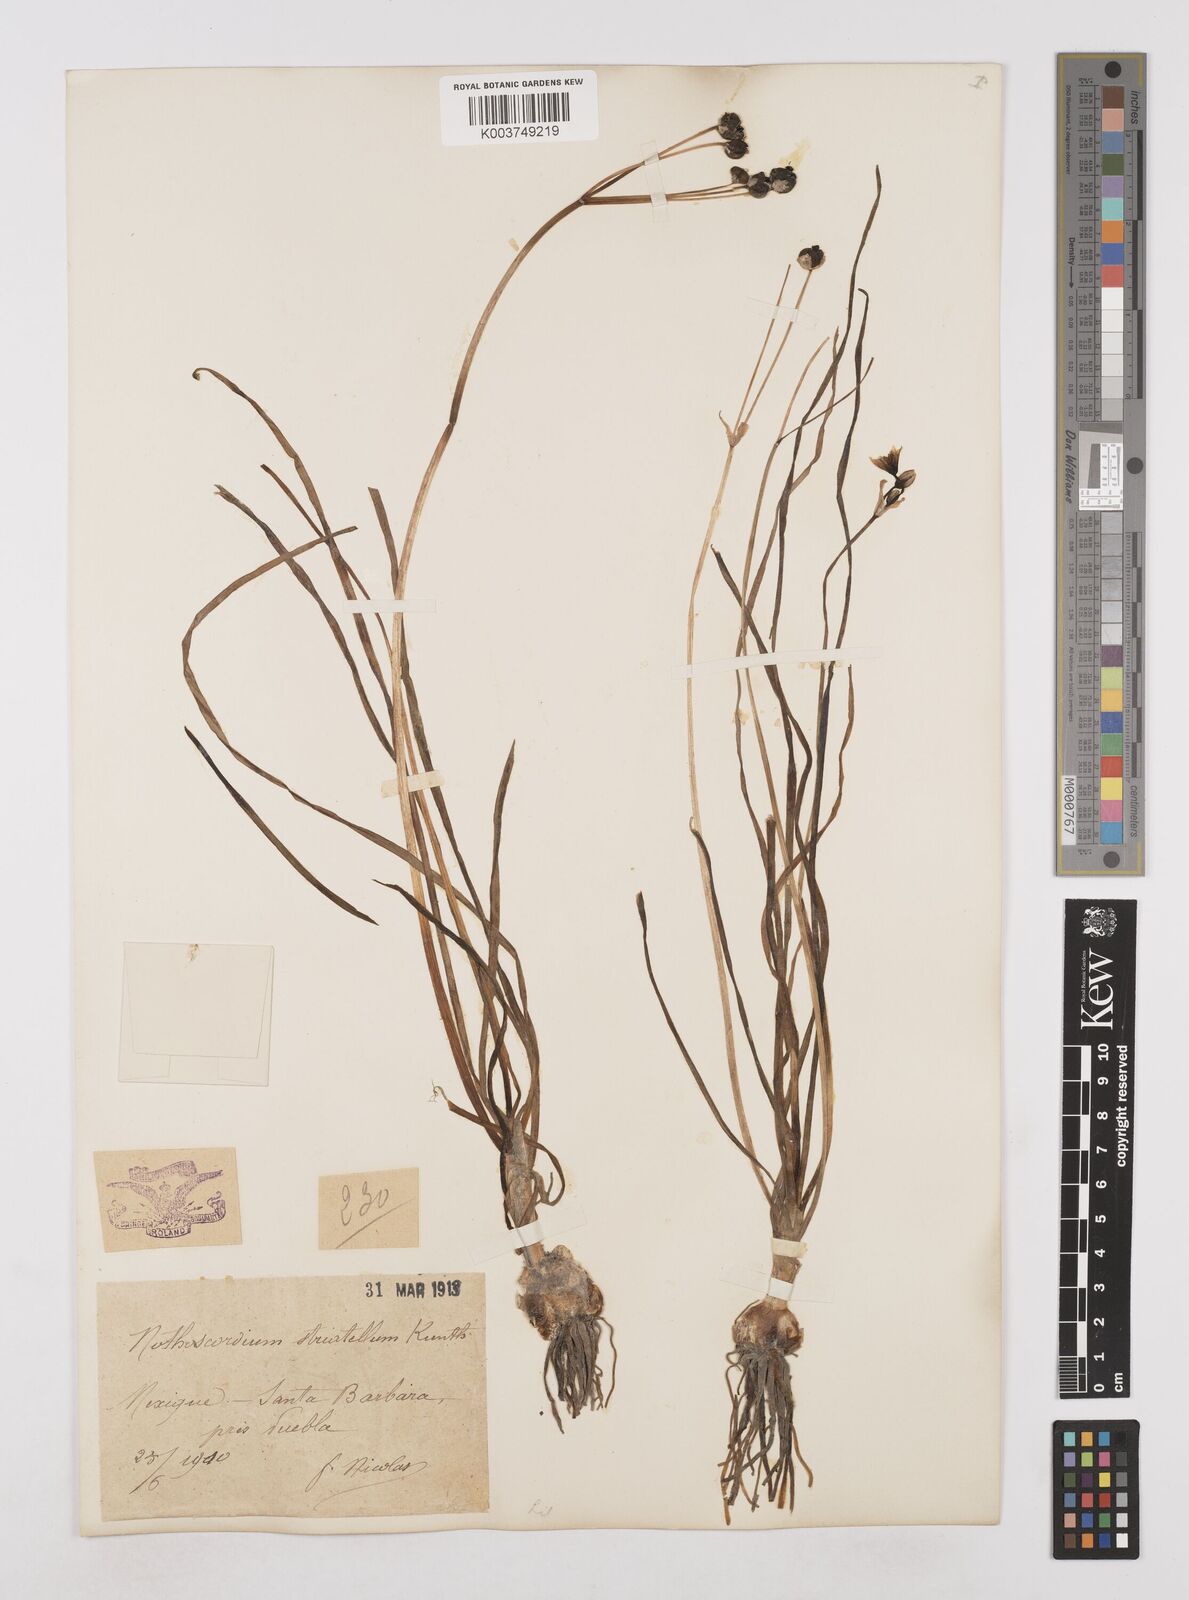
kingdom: Plantae
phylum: Tracheophyta
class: Liliopsida
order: Asparagales
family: Amaryllidaceae
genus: Nothoscordum
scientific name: Nothoscordum bivalve
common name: Crow-poison
